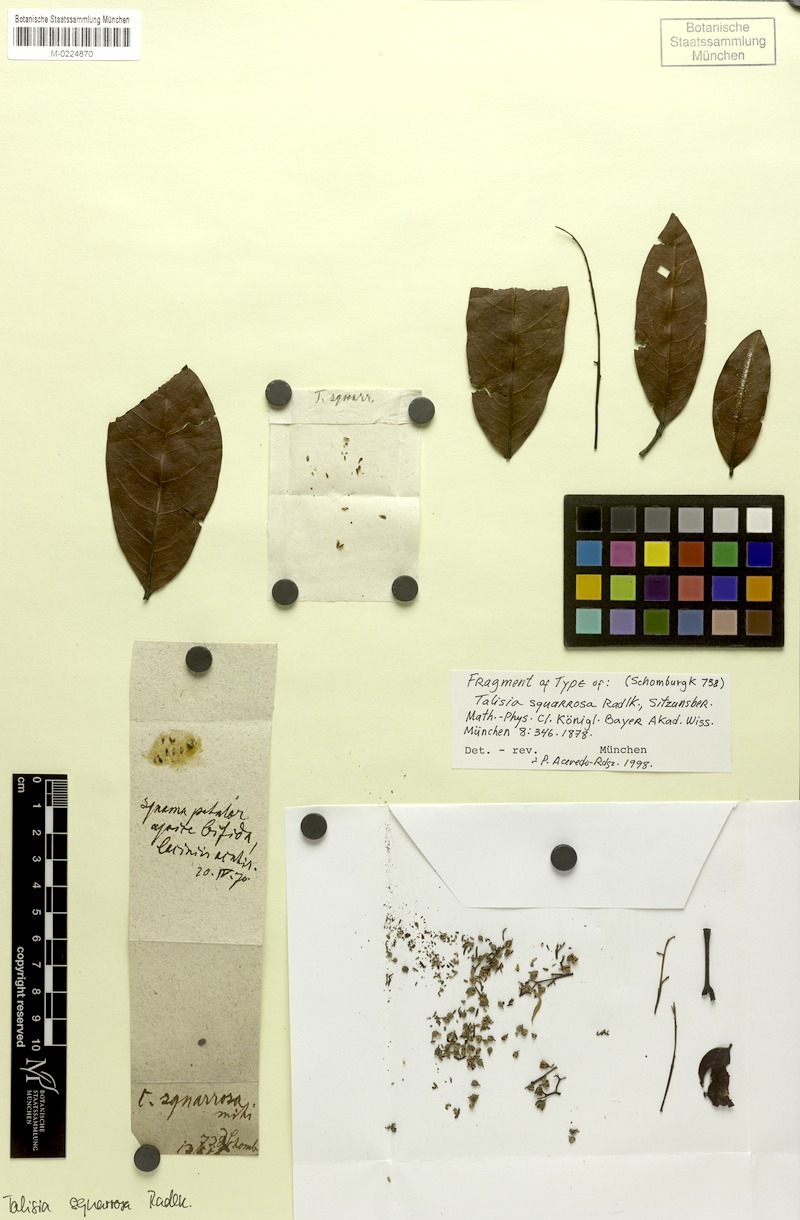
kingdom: Plantae
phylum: Tracheophyta
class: Magnoliopsida
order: Sapindales
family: Sapindaceae
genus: Talisia
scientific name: Talisia squarrosa
